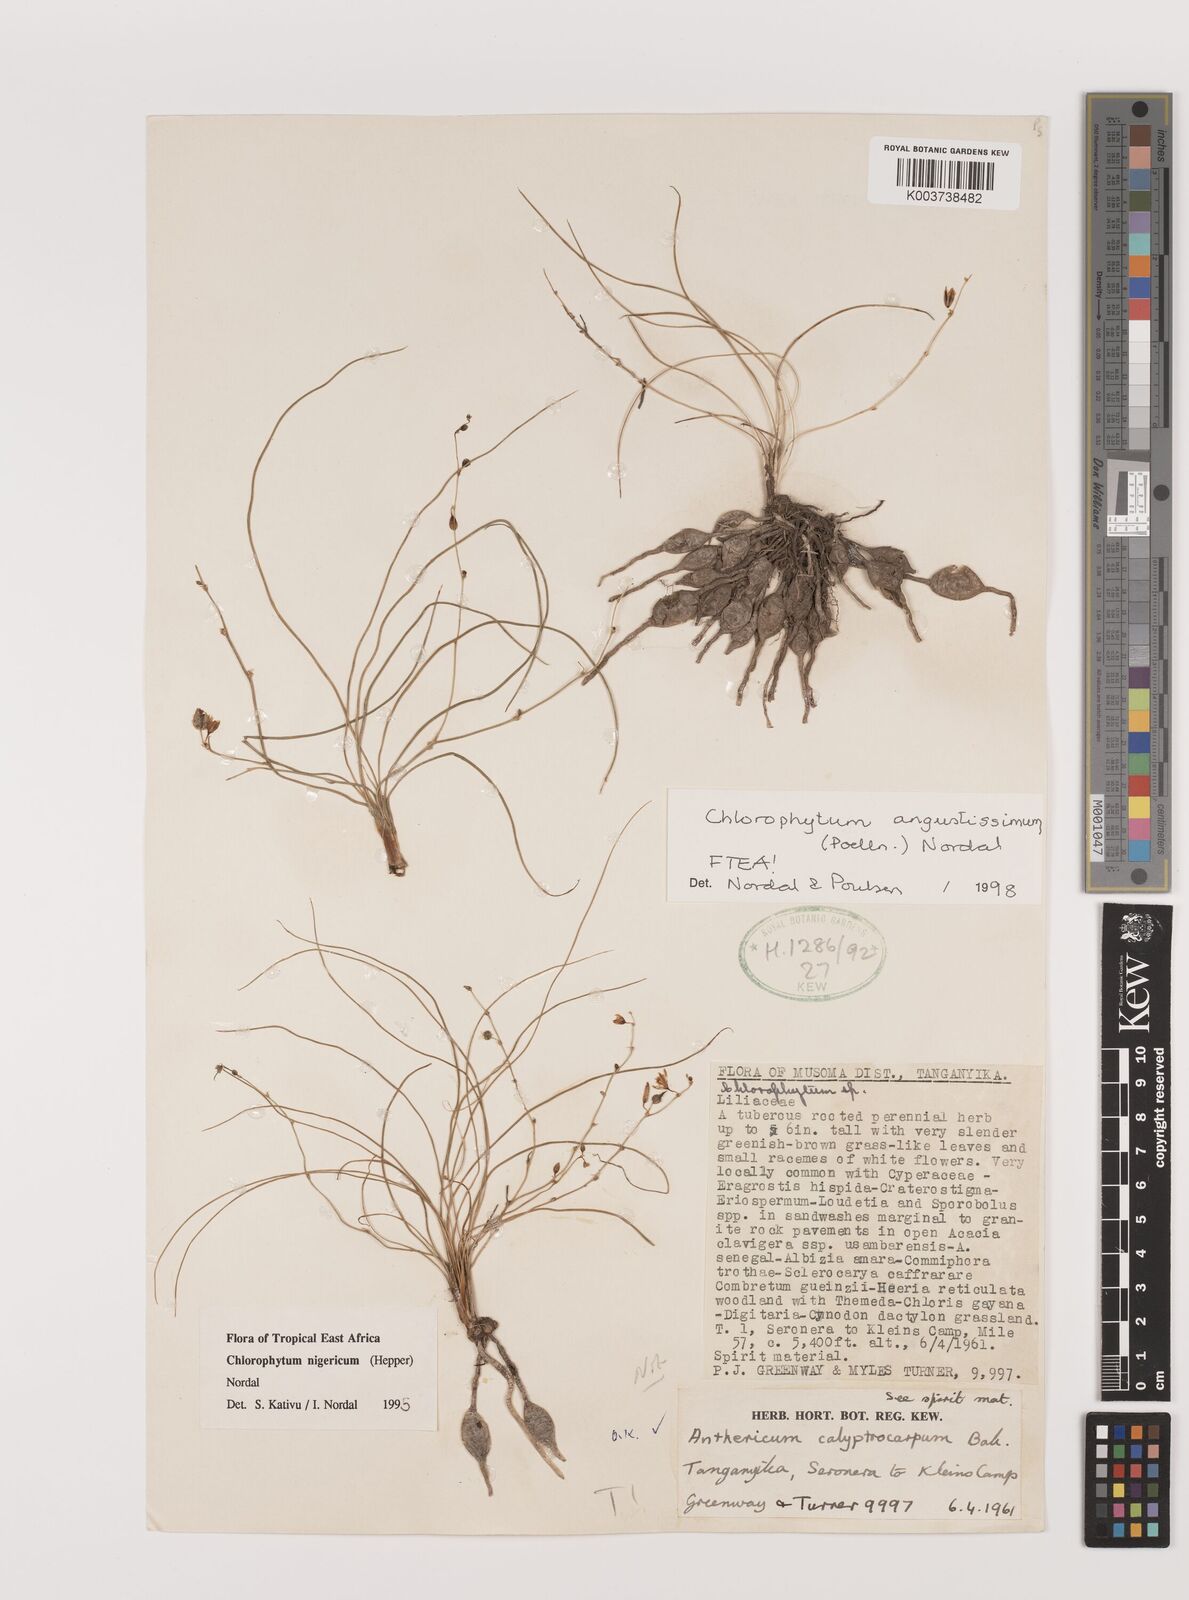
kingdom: Plantae
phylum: Tracheophyta
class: Liliopsida
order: Asparagales
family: Asparagaceae
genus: Chlorophytum
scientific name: Chlorophytum angustissimum
